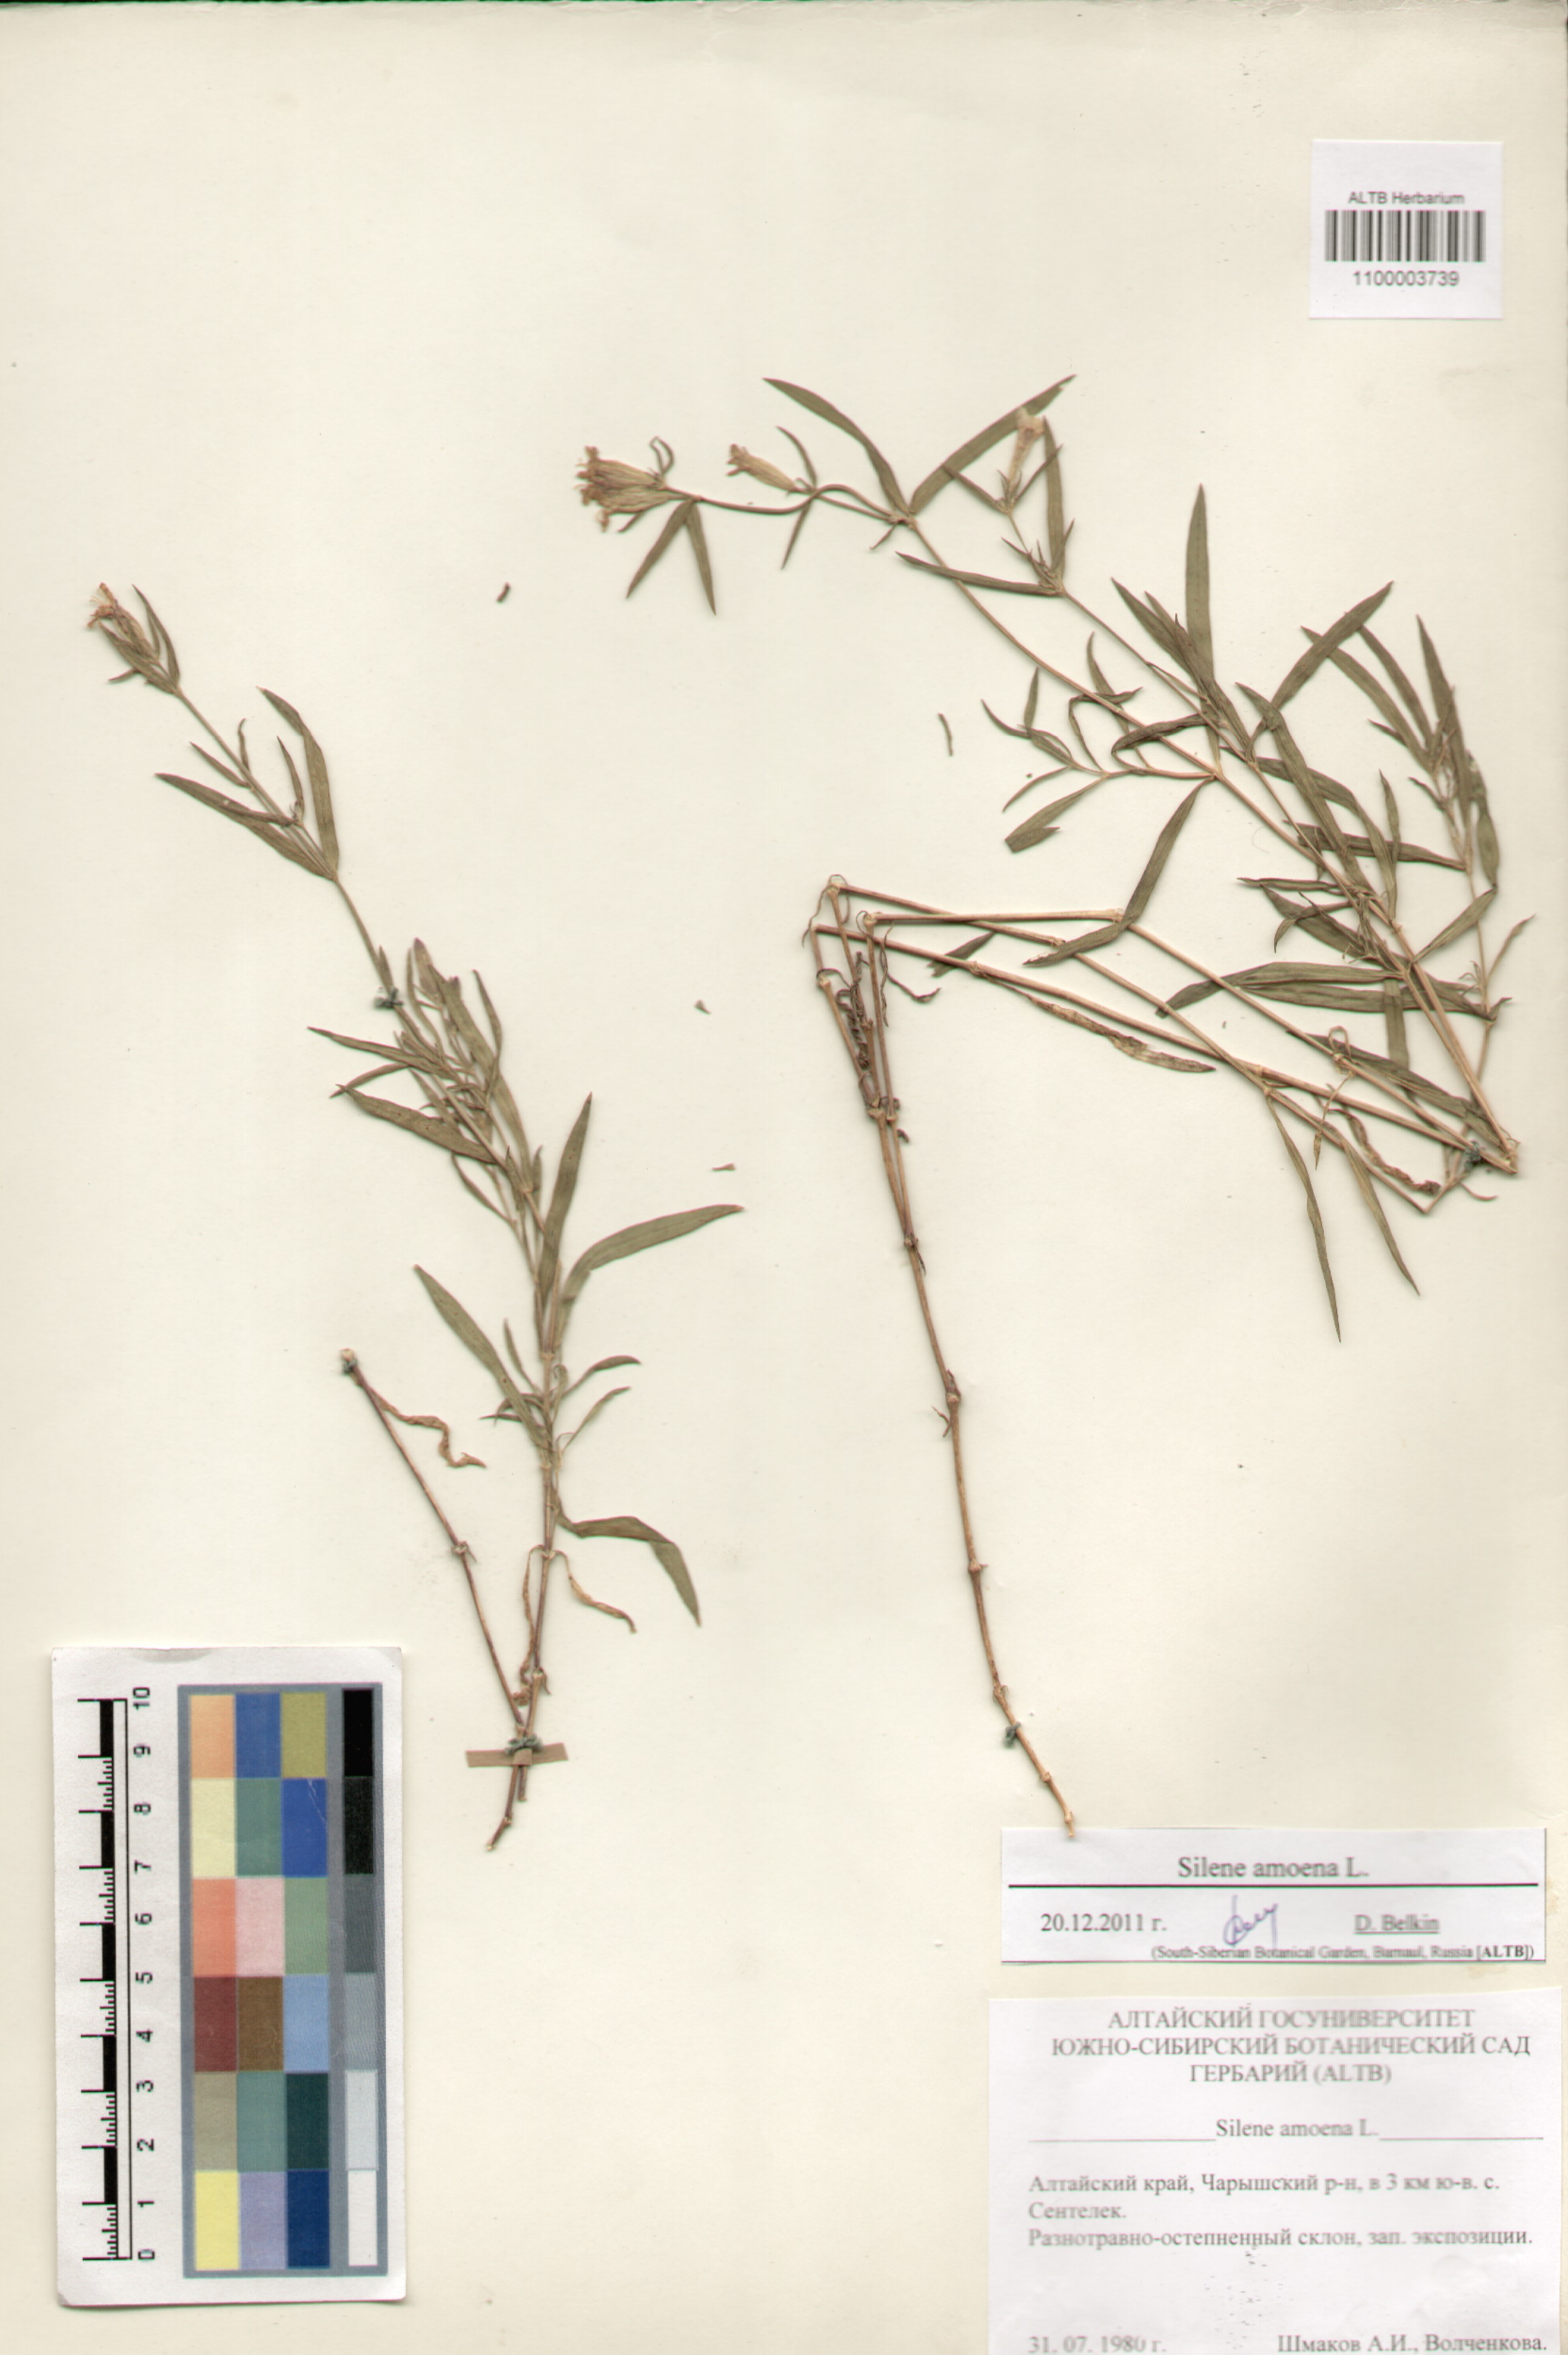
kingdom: Plantae
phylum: Tracheophyta
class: Magnoliopsida
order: Caryophyllales
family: Caryophyllaceae
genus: Silene
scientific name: Silene amoena
